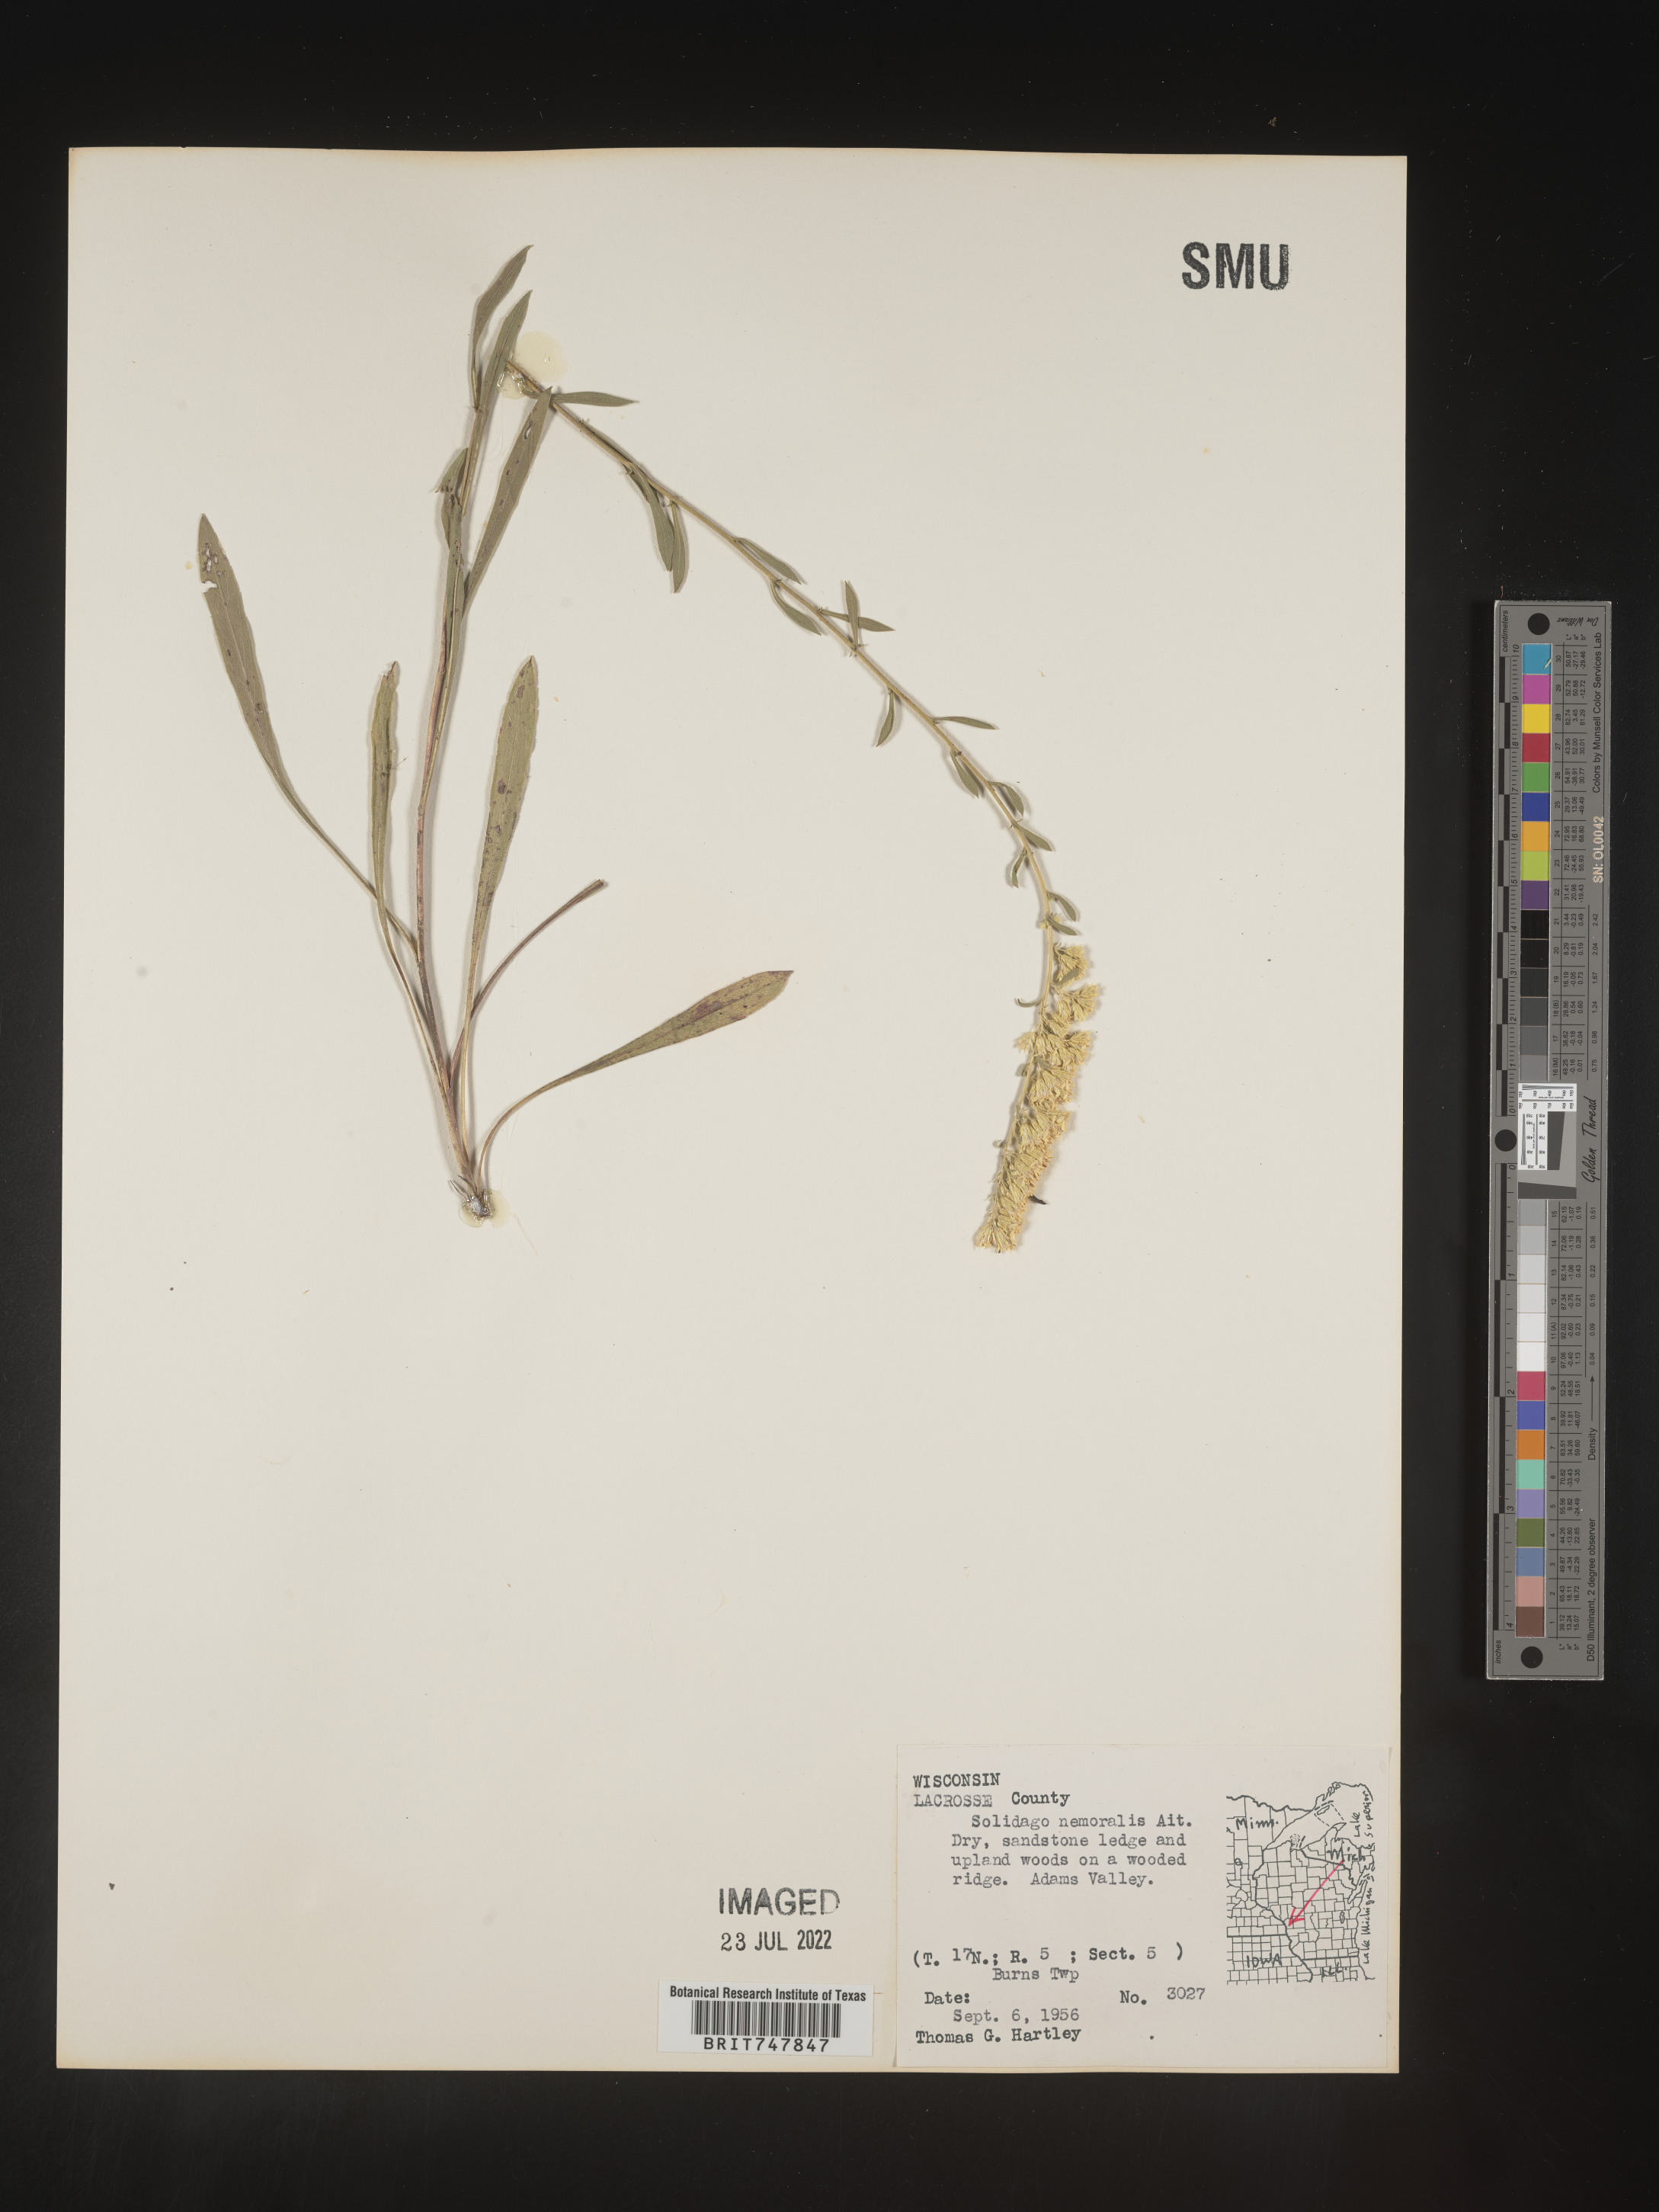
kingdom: Plantae
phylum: Tracheophyta
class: Magnoliopsida
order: Asterales
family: Asteraceae
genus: Solidago
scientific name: Solidago nemoralis
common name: Grey goldenrod
